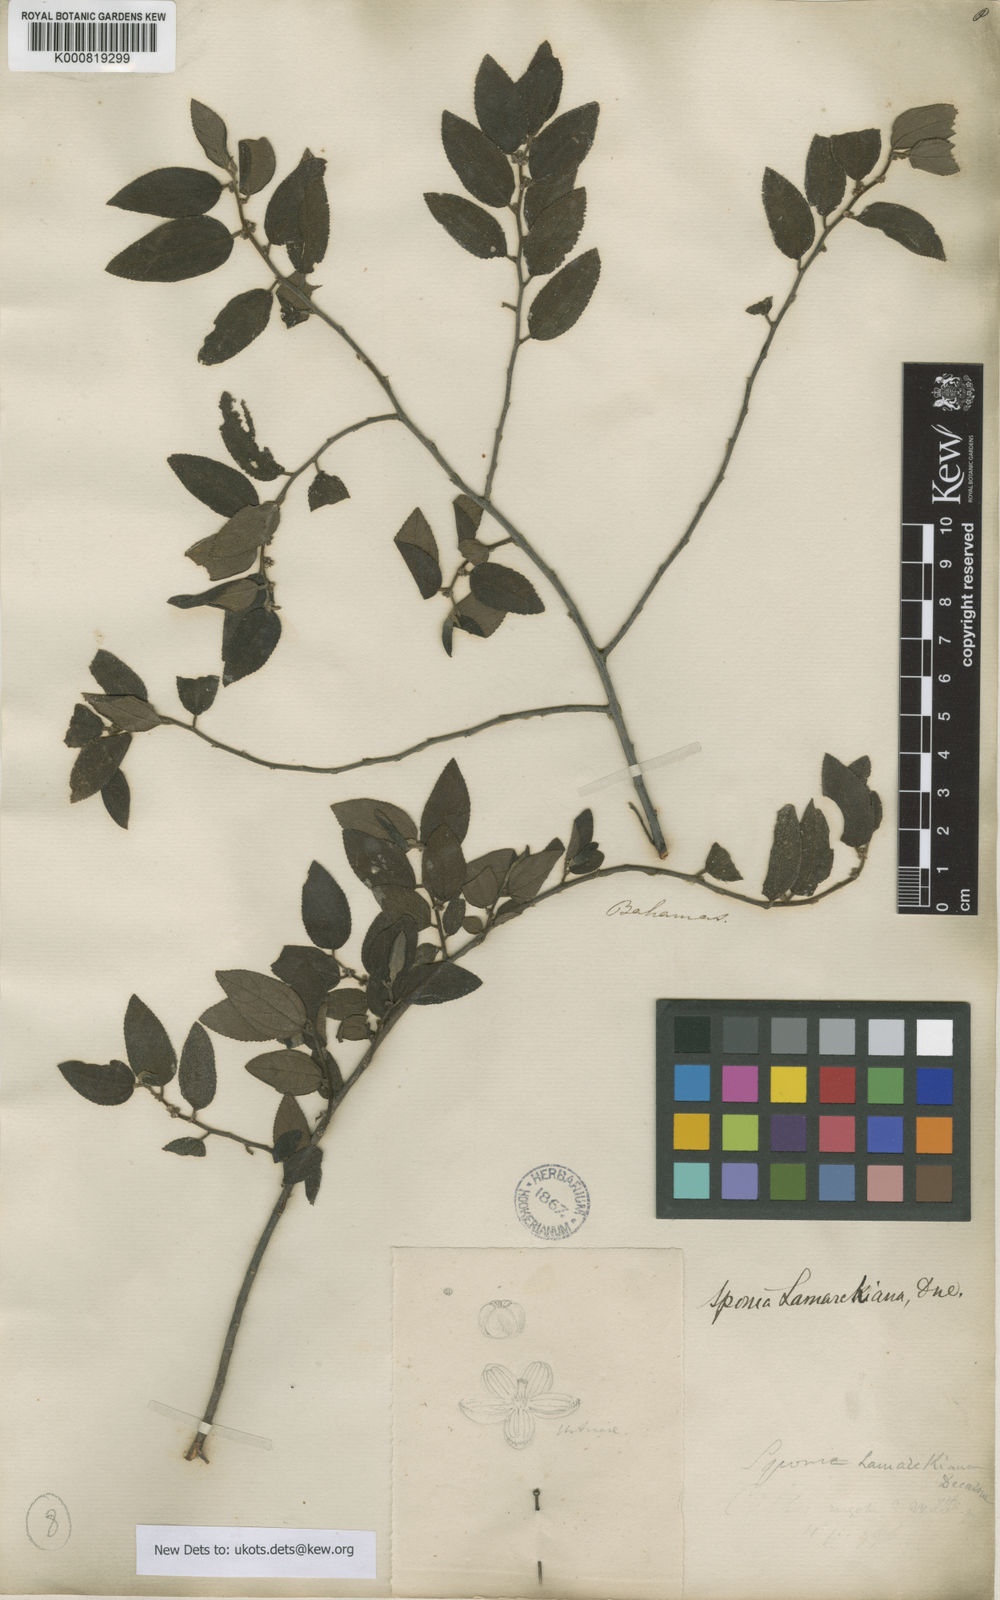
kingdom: Plantae
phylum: Tracheophyta
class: Magnoliopsida
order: Rosales
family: Cannabaceae
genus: Trema
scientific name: Trema lamarckianum
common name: Lamarck's trema
